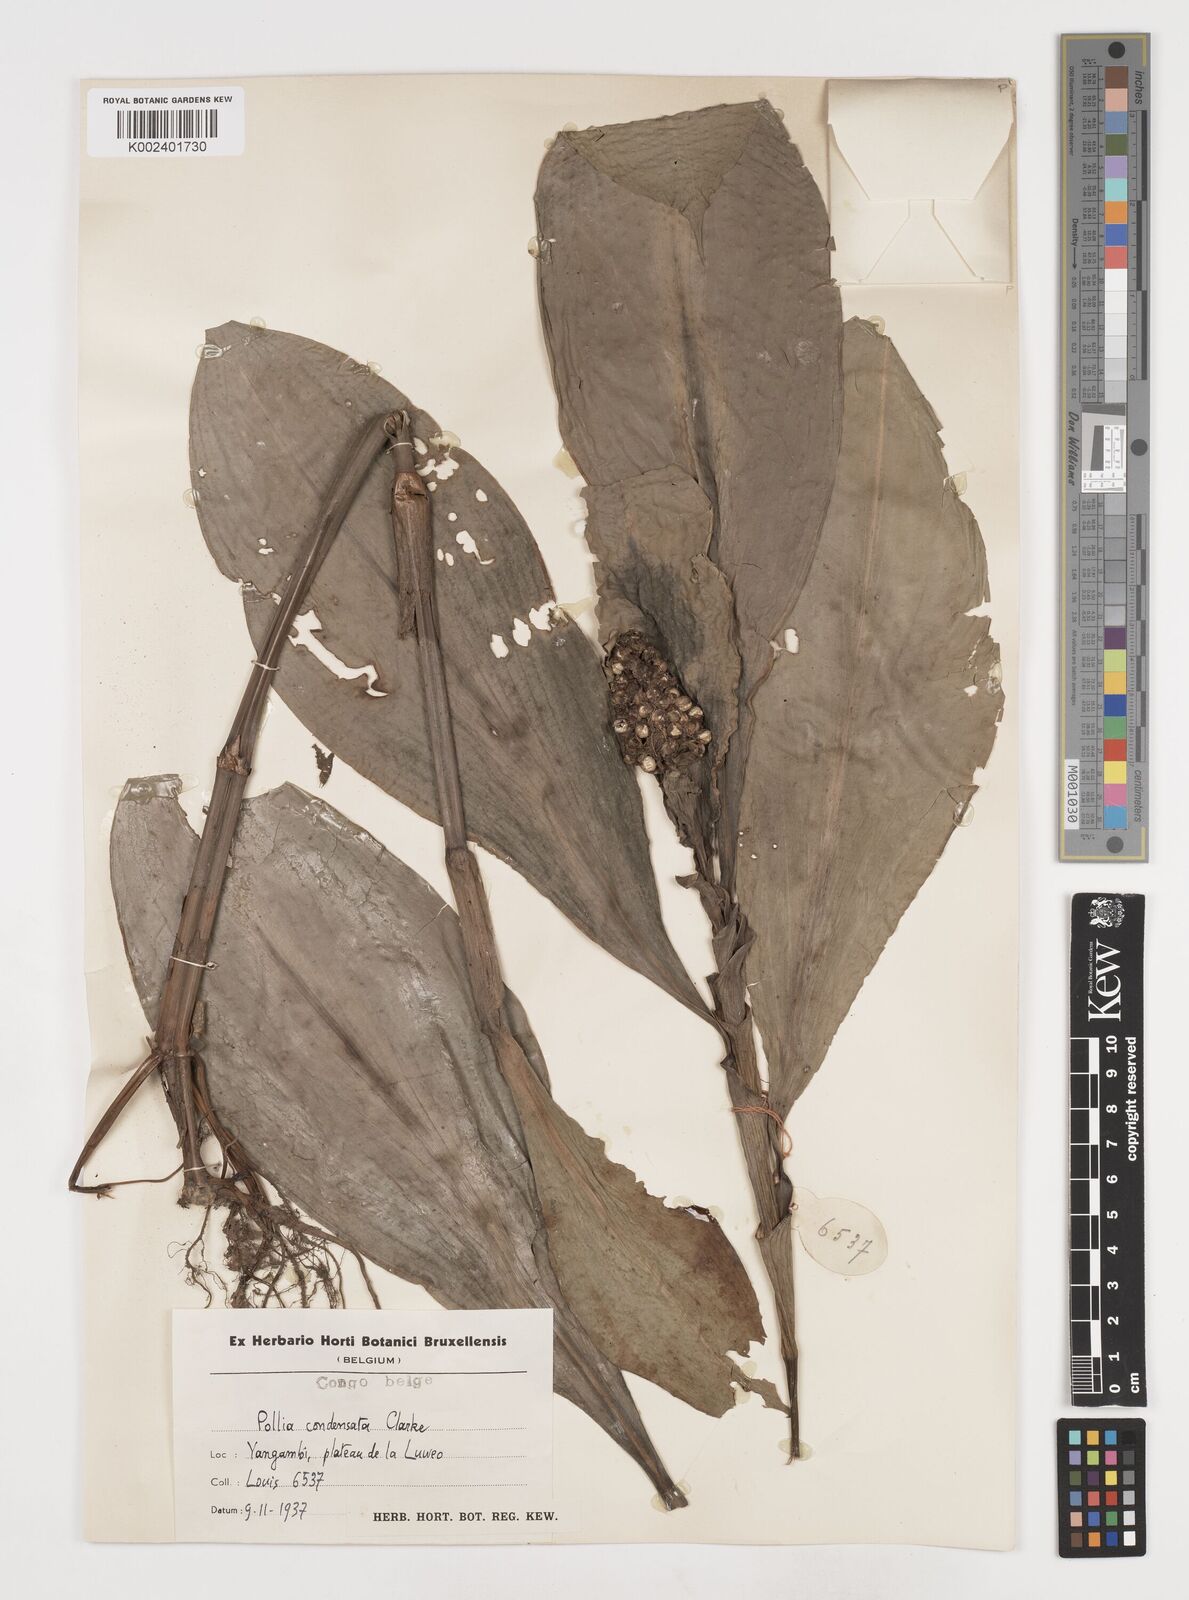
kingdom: Plantae
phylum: Tracheophyta
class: Liliopsida
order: Commelinales
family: Commelinaceae
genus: Pollia
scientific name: Pollia condensata
